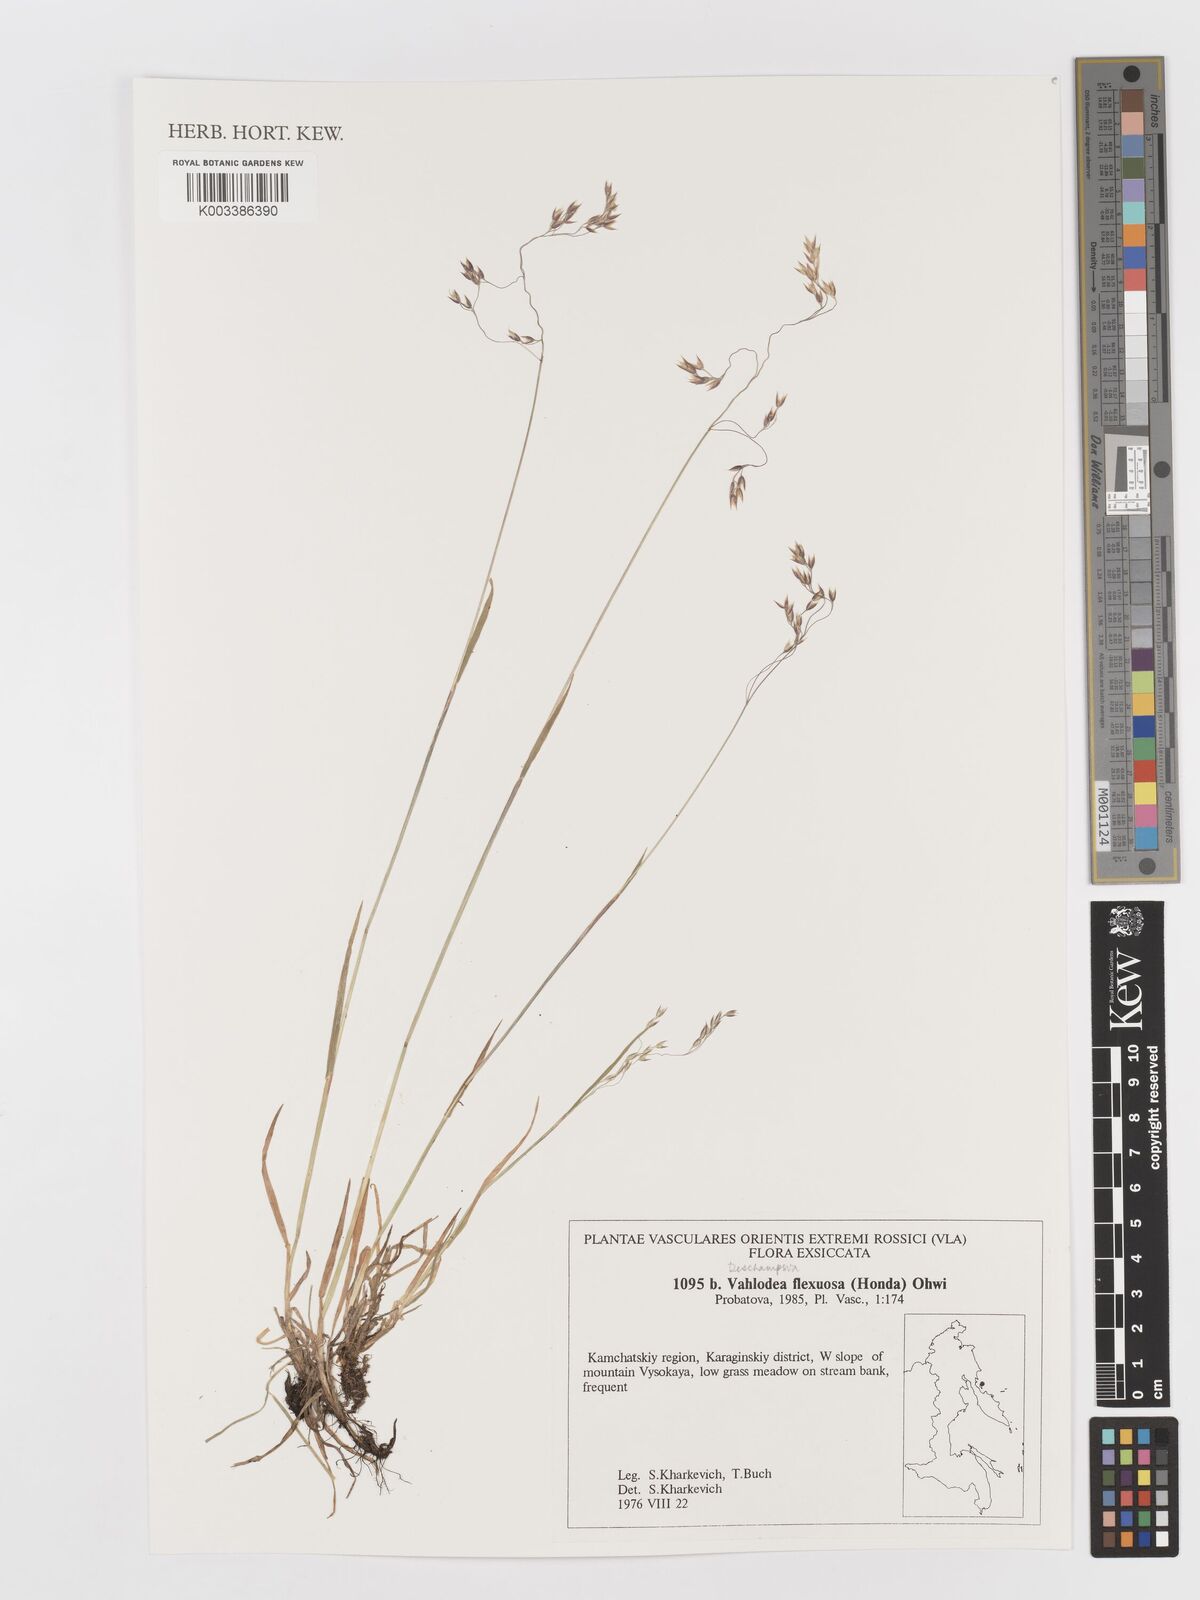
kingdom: Plantae
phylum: Tracheophyta
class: Liliopsida
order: Poales
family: Poaceae
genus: Avenella
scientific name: Avenella flexuosa
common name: Wavy hairgrass
